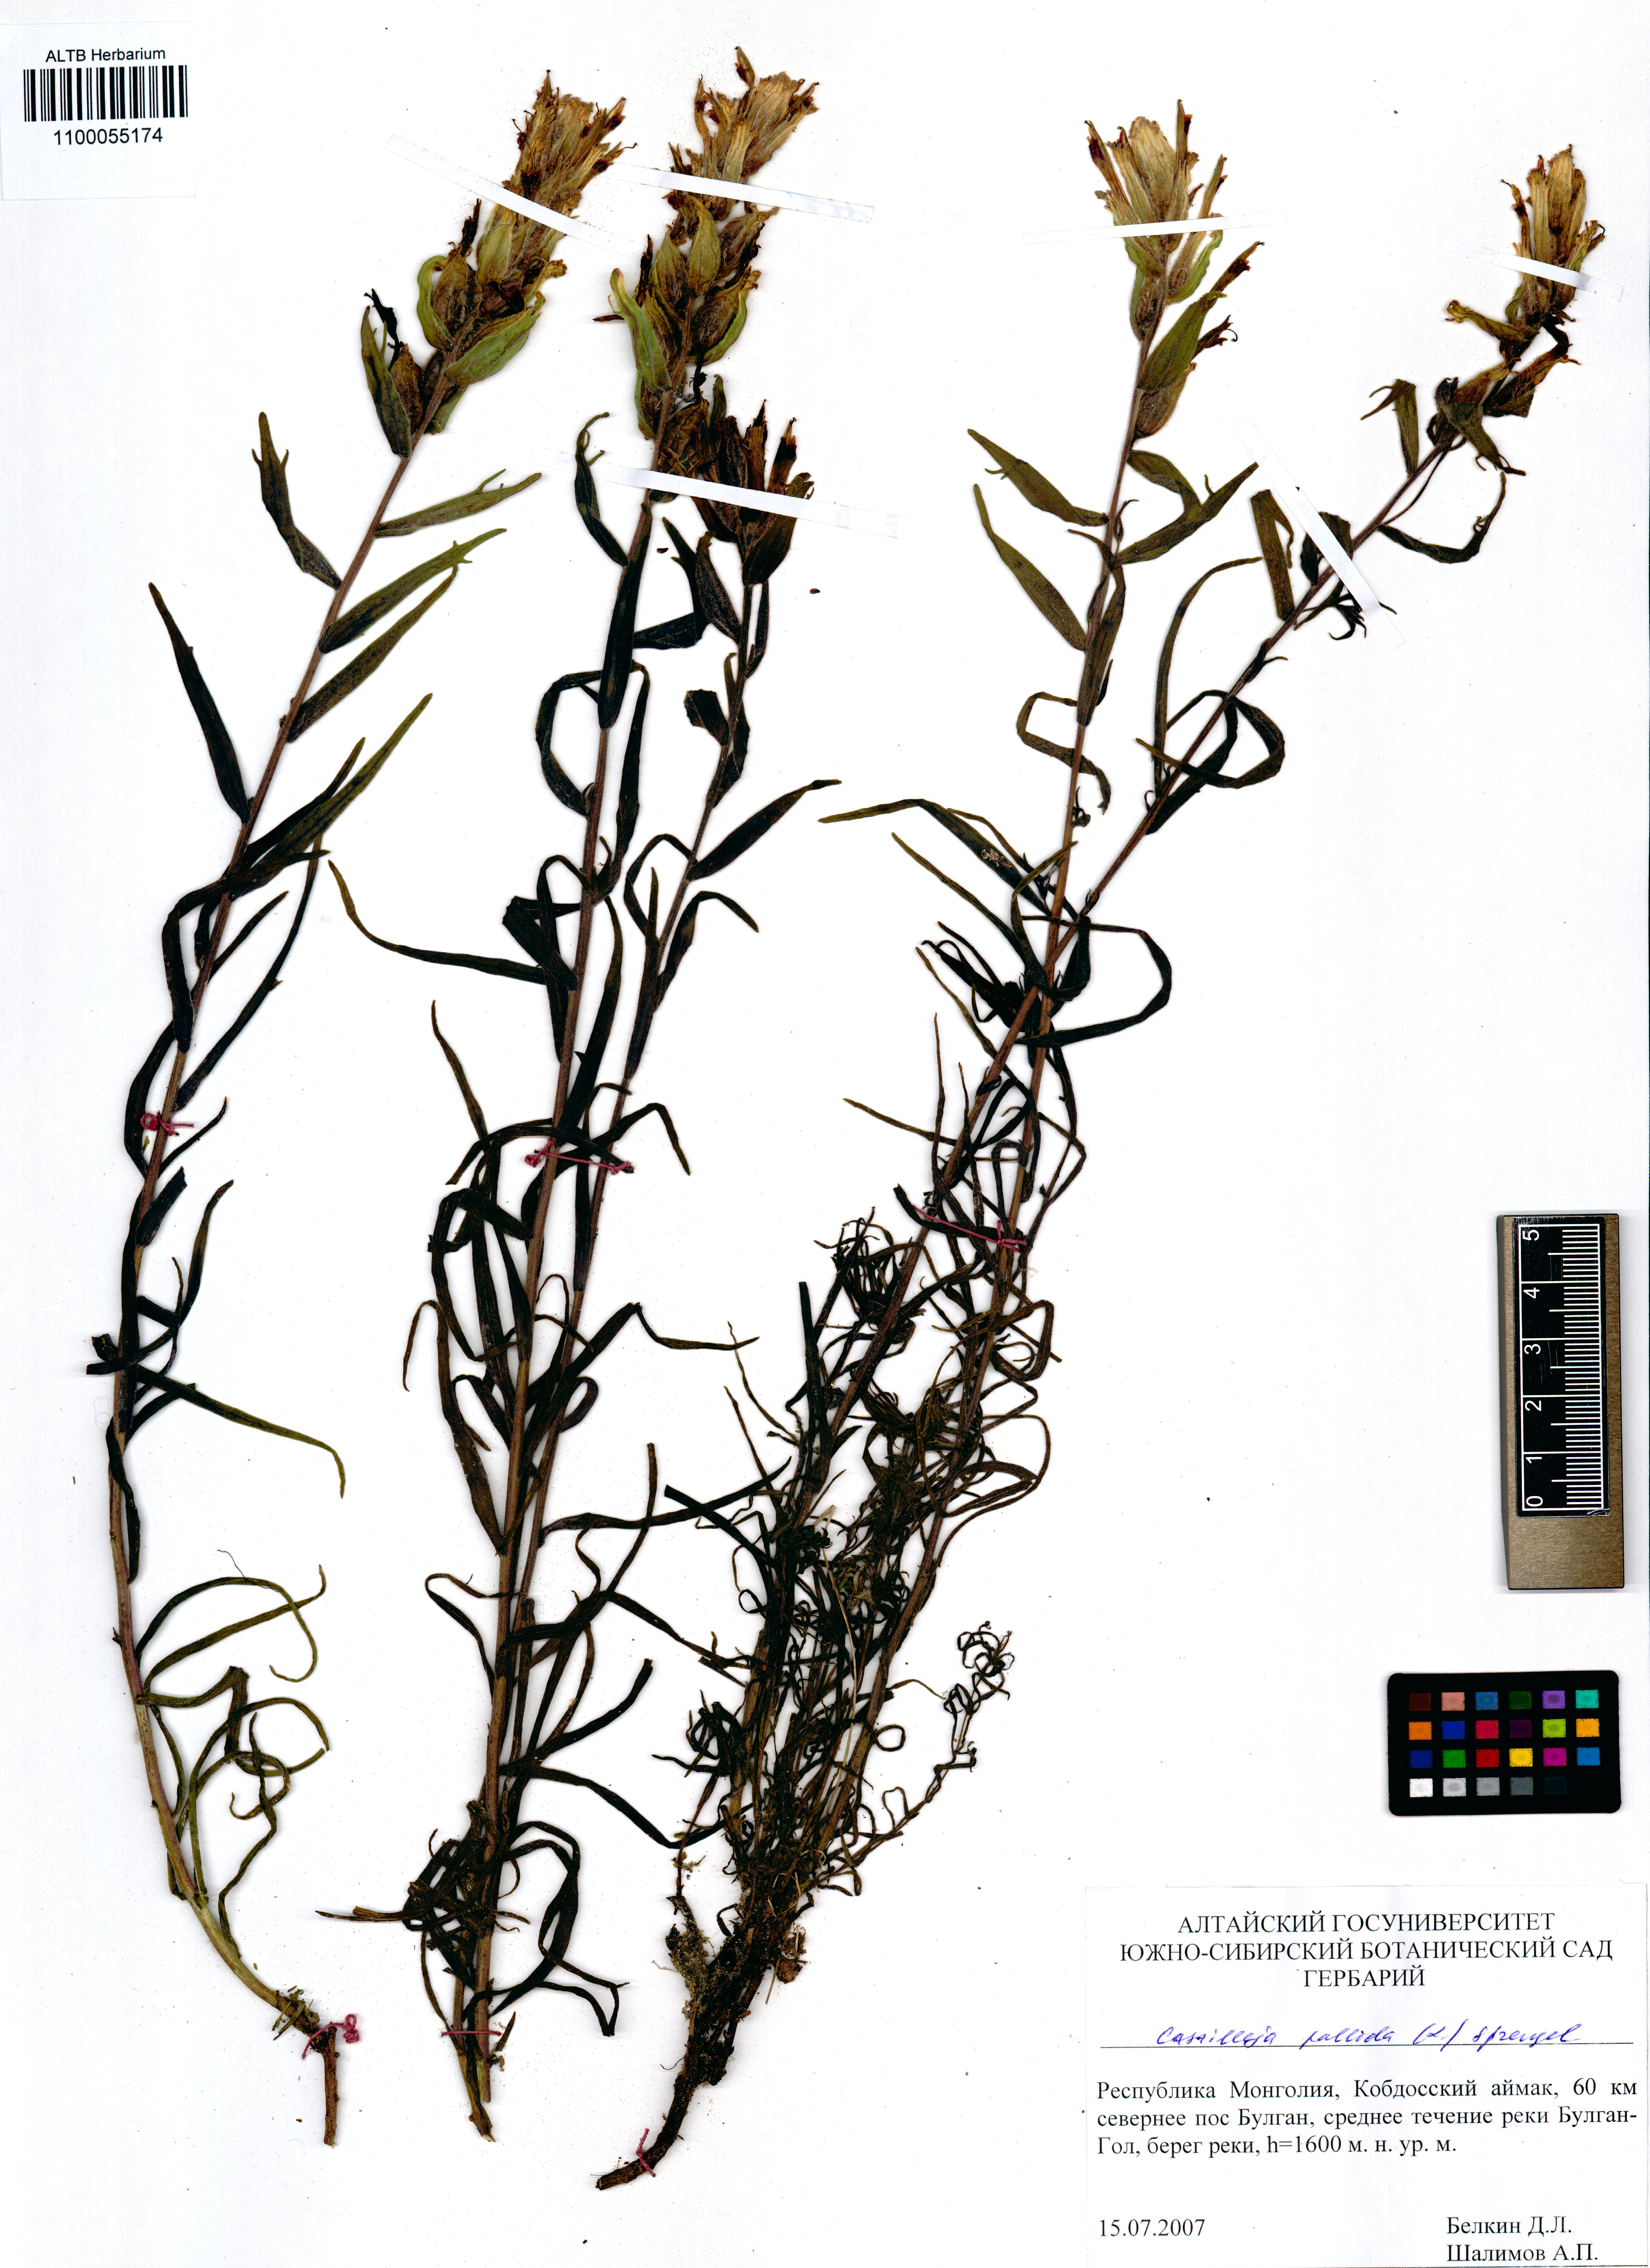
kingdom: Plantae
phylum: Tracheophyta
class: Magnoliopsida
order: Lamiales
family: Orobanchaceae
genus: Castilleja
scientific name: Castilleja pallida
